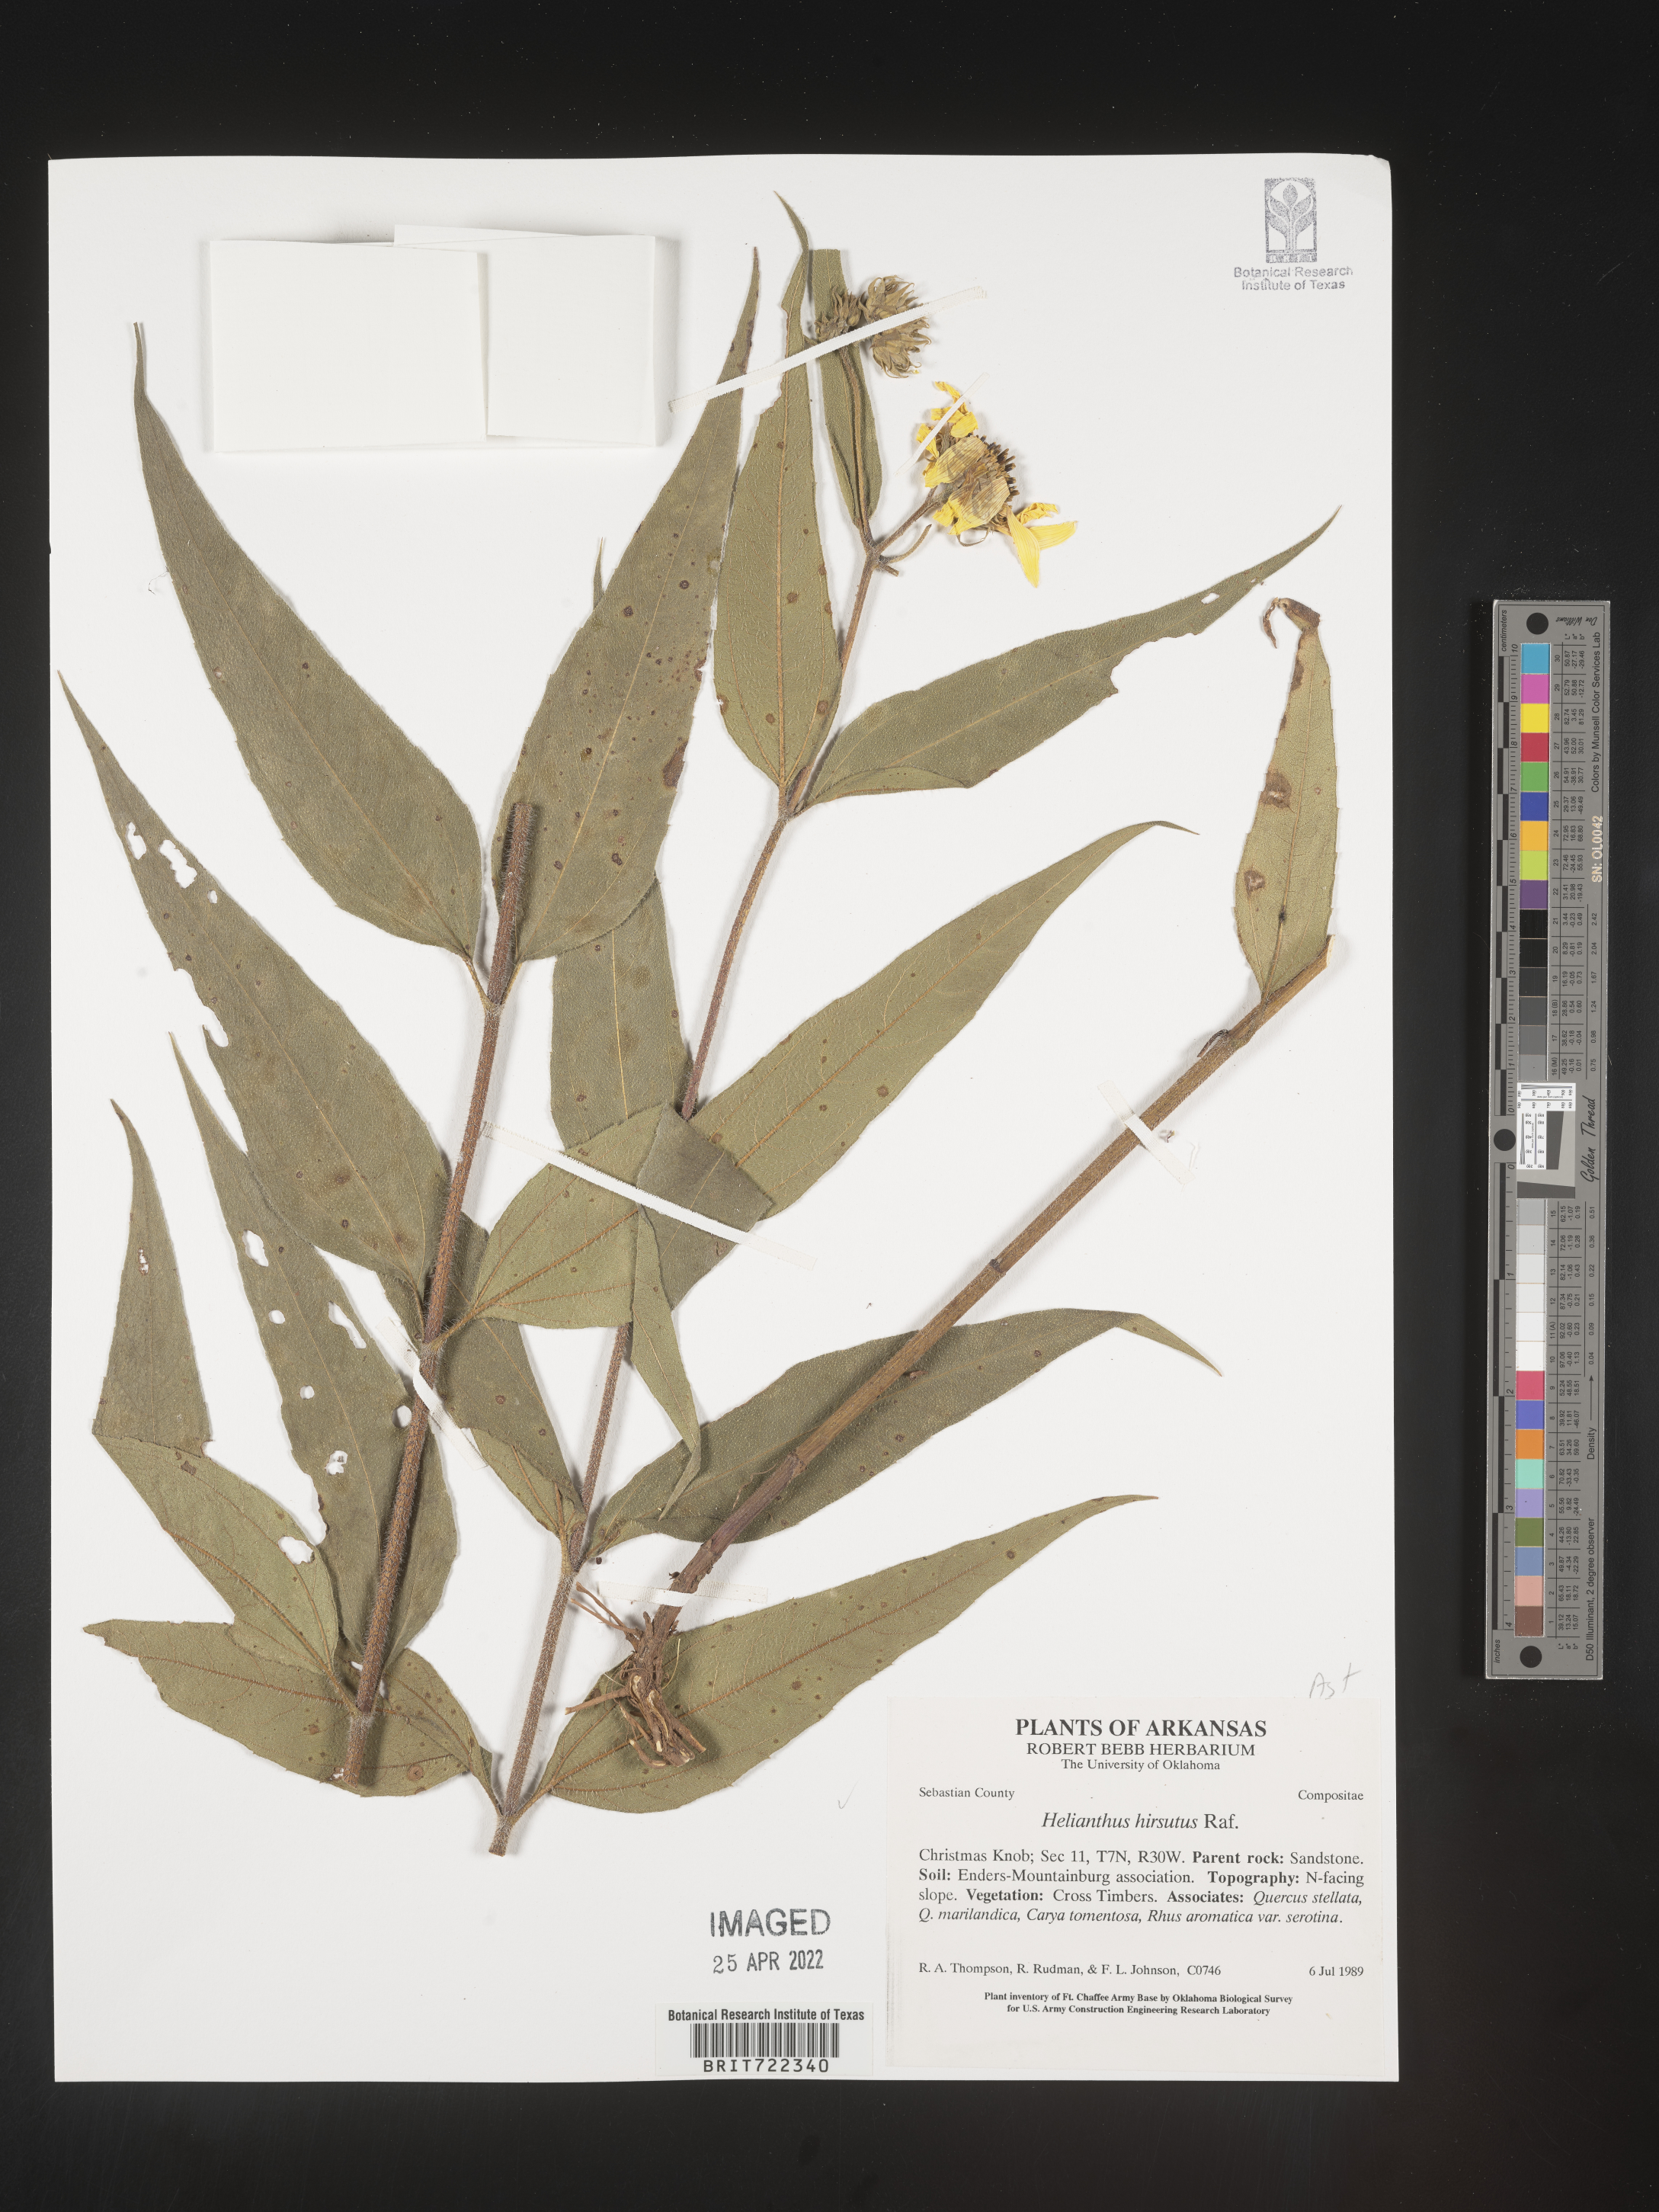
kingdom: Plantae
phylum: Tracheophyta
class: Magnoliopsida
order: Asterales
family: Asteraceae
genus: Helianthus
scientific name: Helianthus hirsutus
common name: Hairy sunflower
